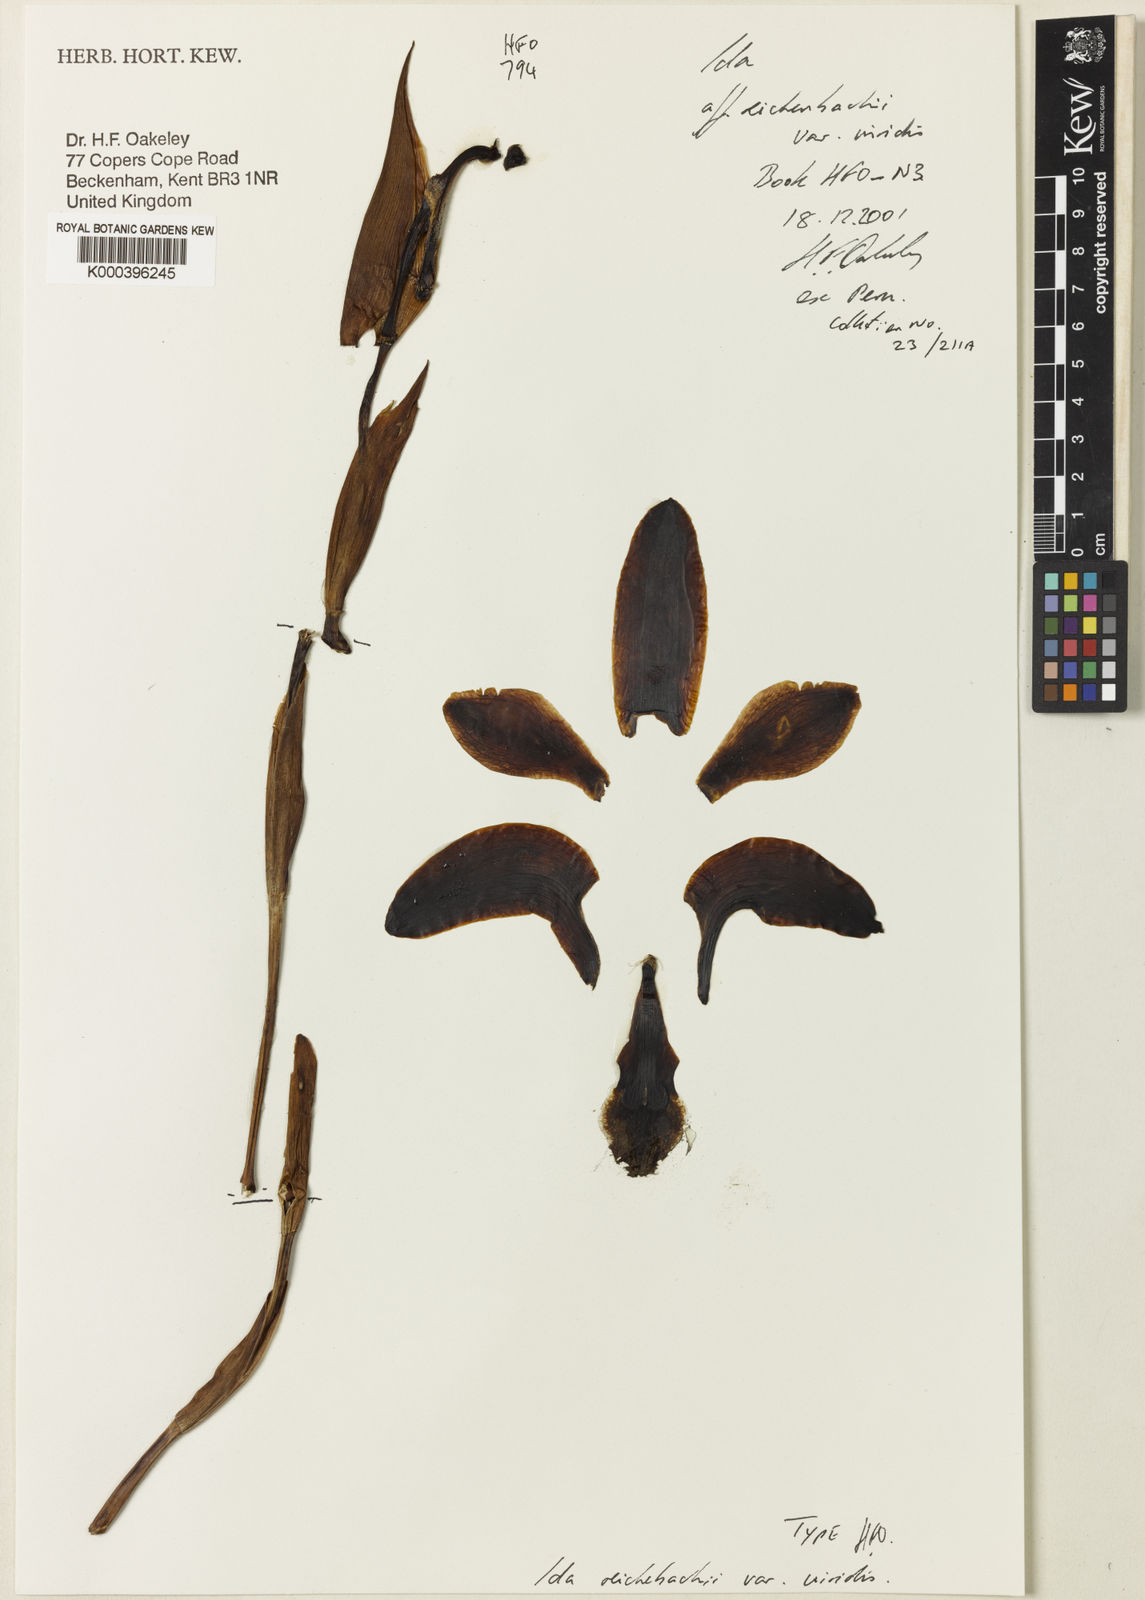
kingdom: Plantae
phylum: Tracheophyta
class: Liliopsida
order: Asparagales
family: Orchidaceae
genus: Ida
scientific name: Ida reichenbachii
